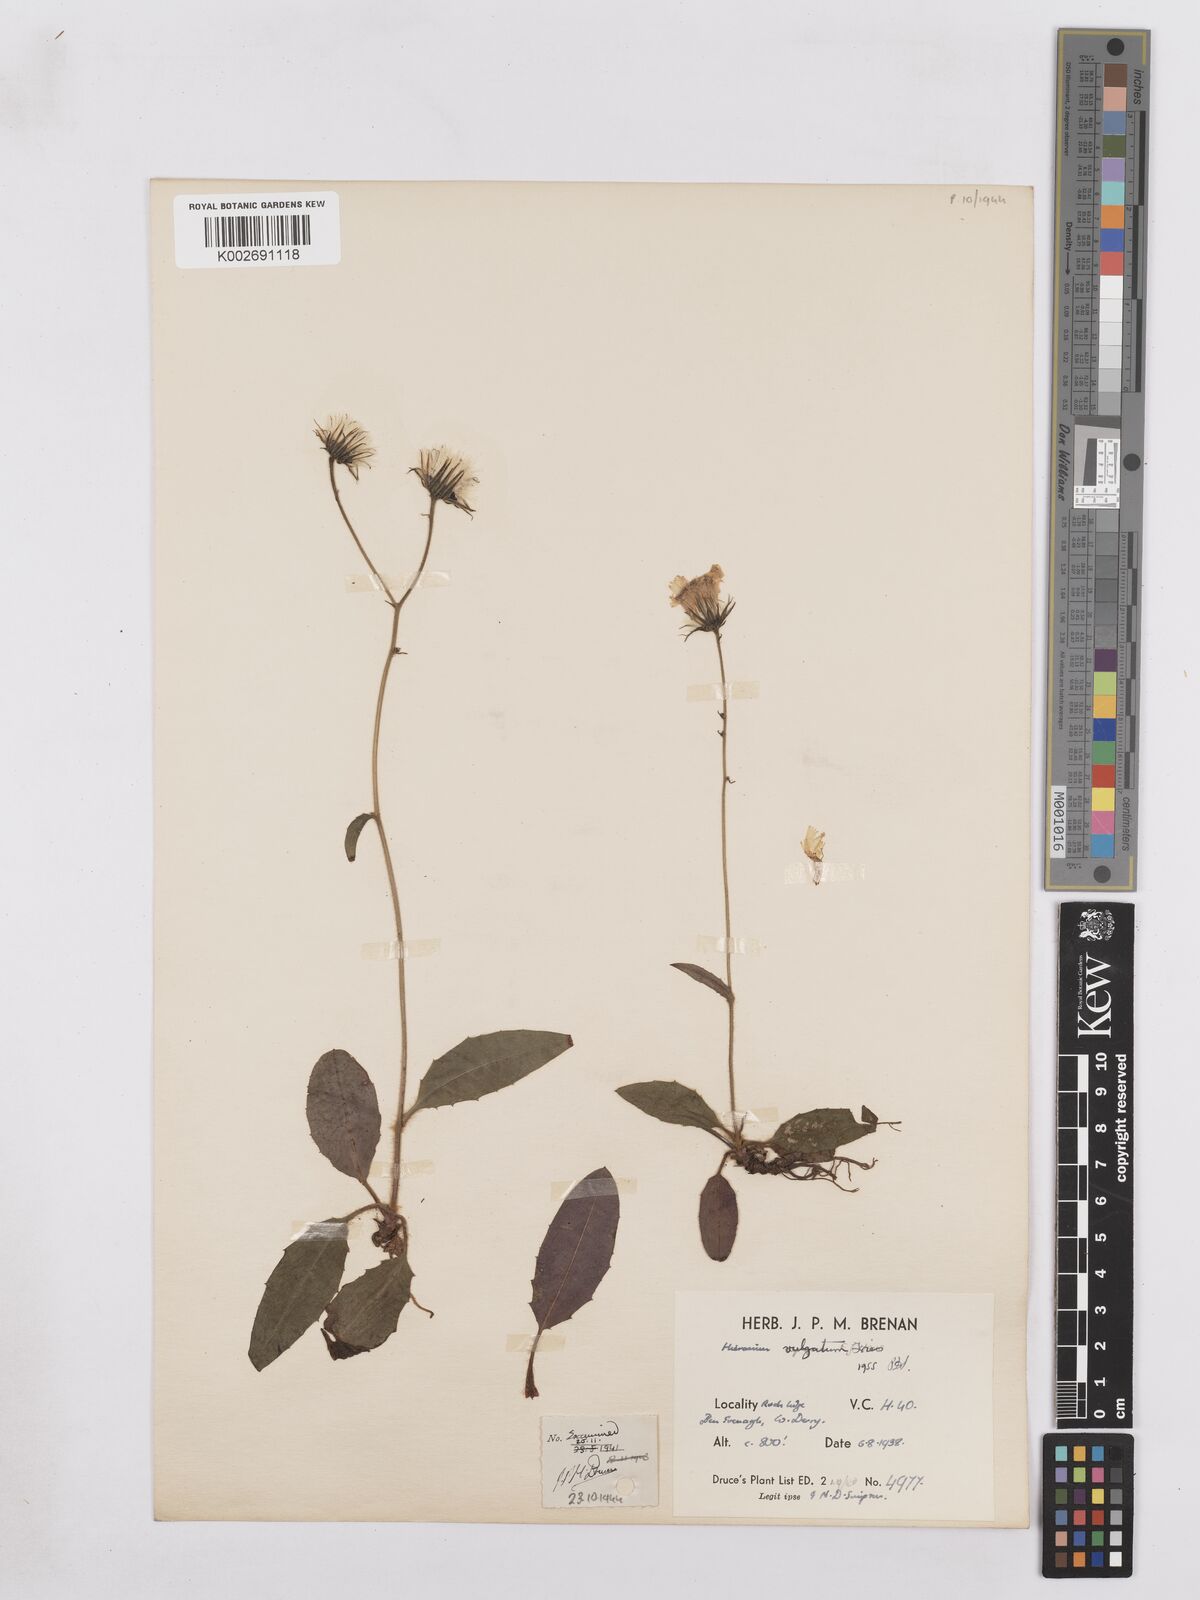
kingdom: Plantae
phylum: Tracheophyta
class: Magnoliopsida
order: Asterales
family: Asteraceae
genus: Hieracium
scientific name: Hieracium lachenalii
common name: Common hawkweed
